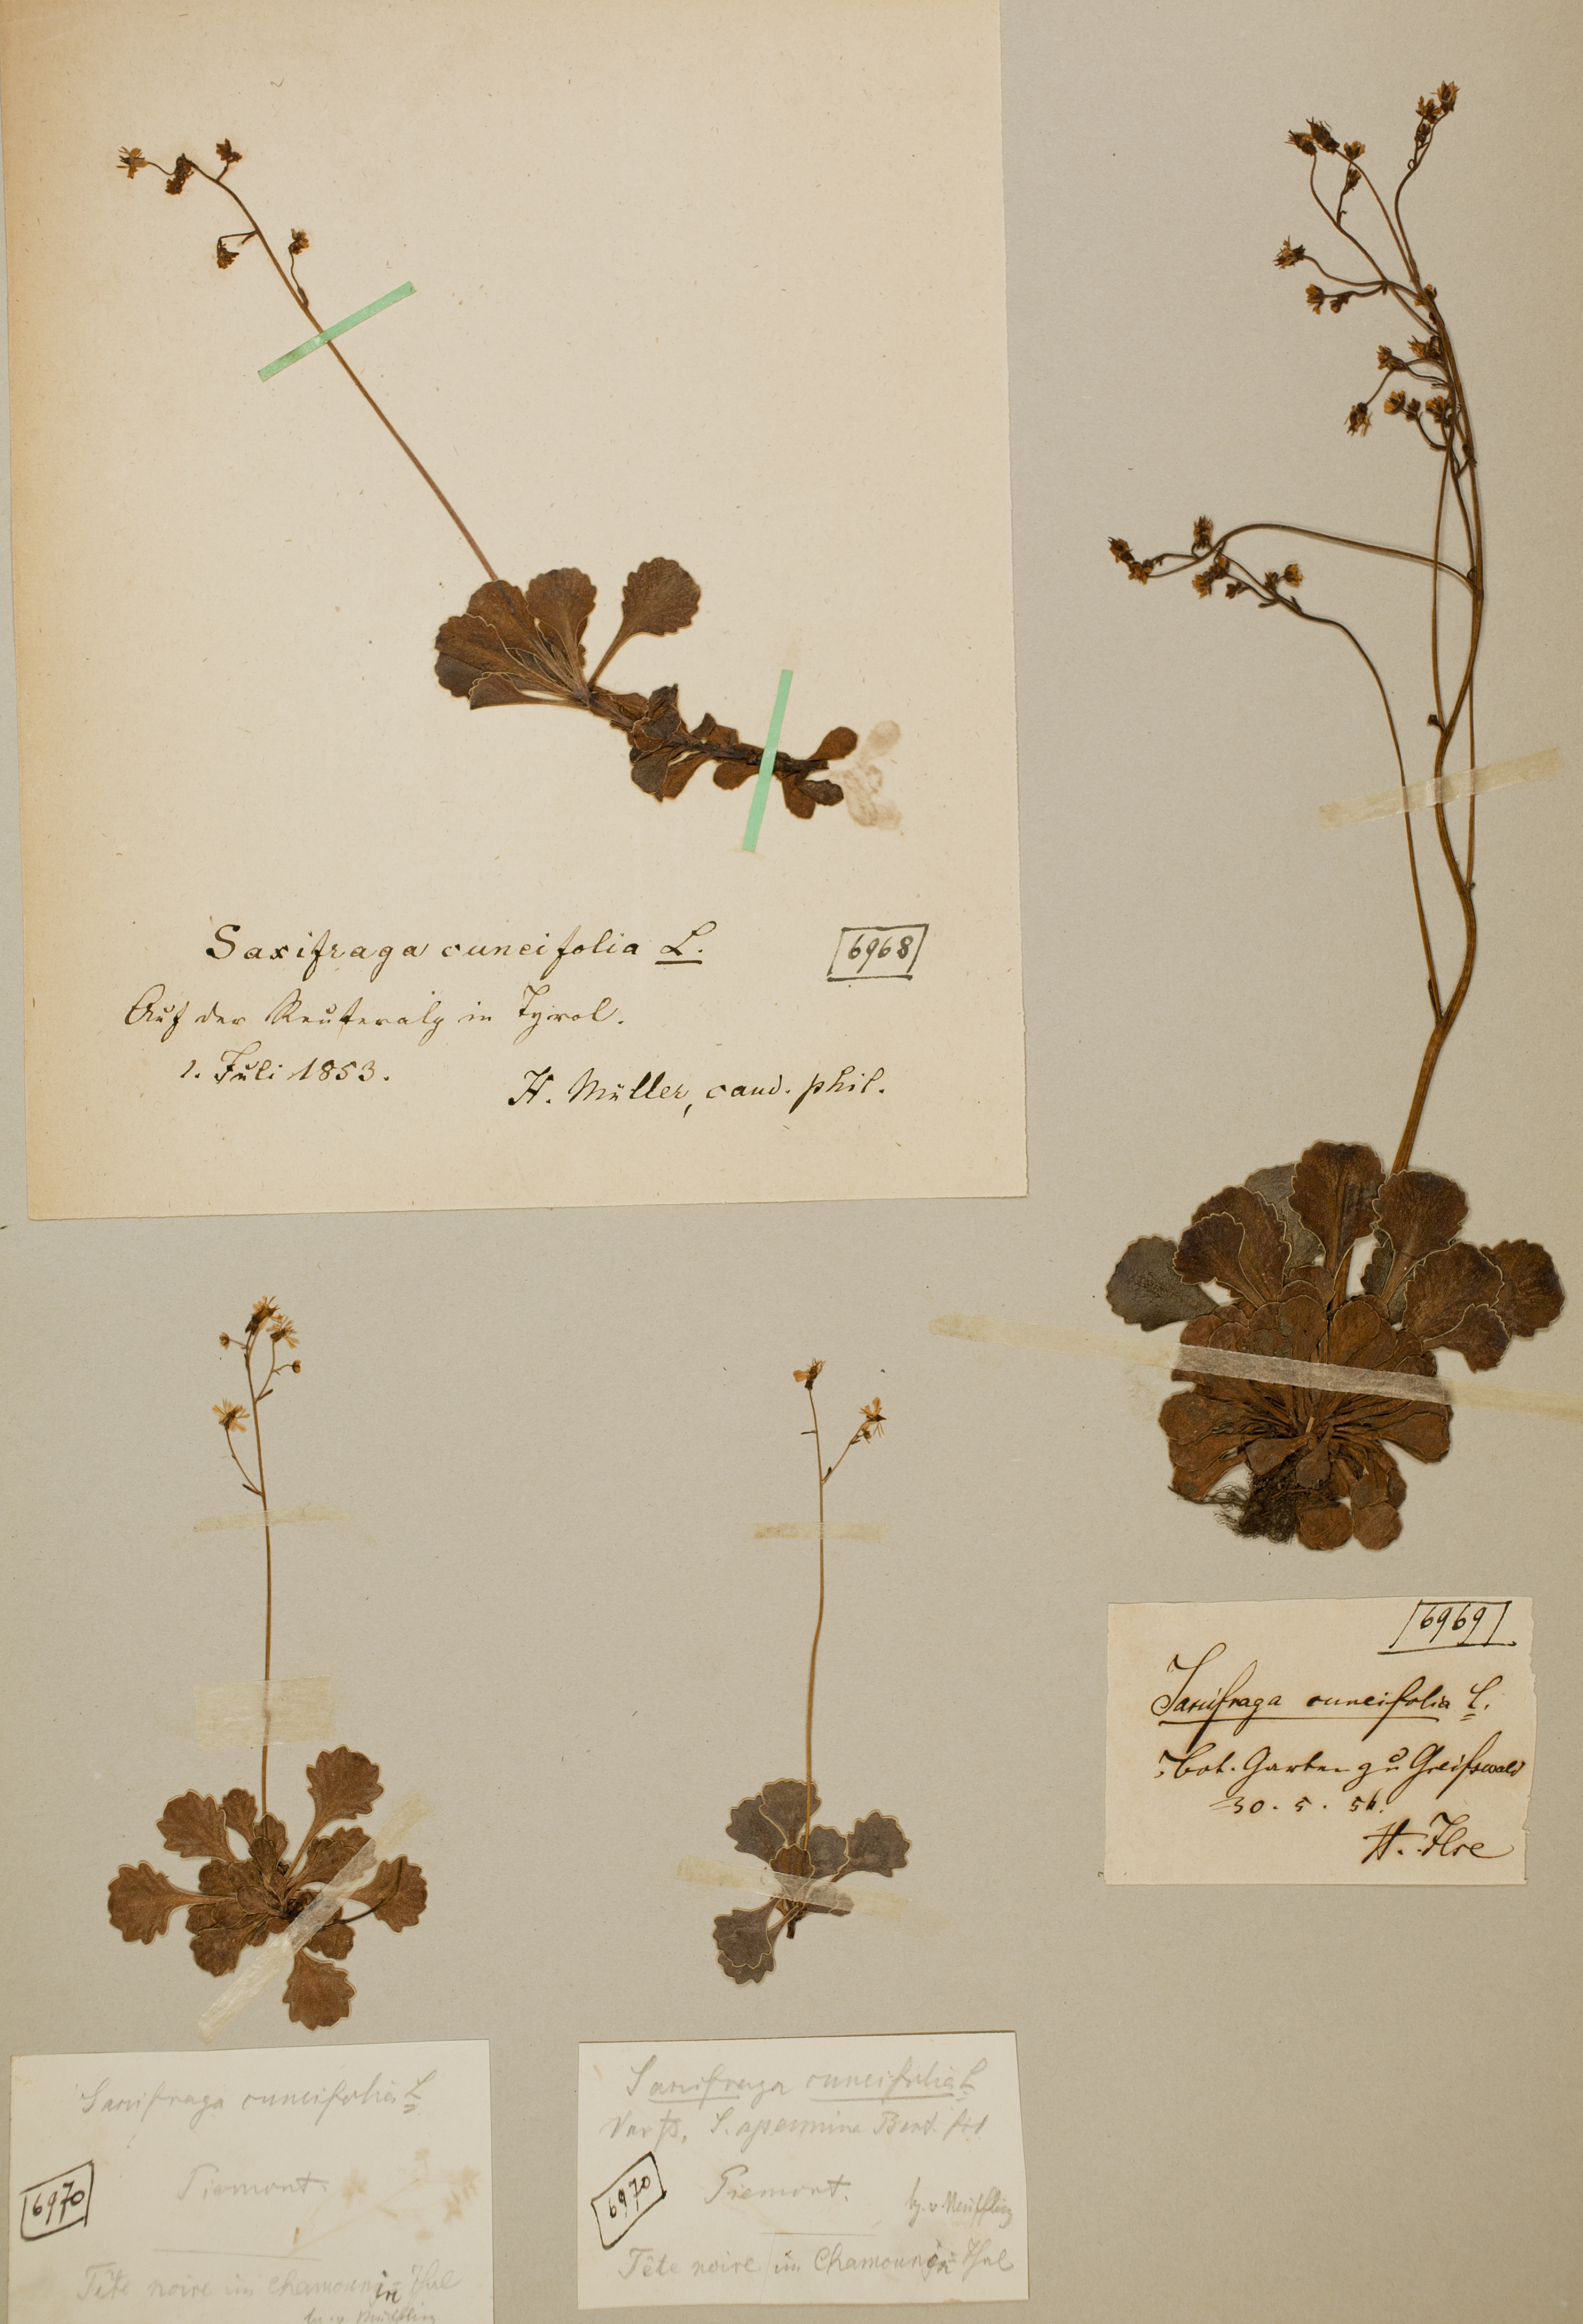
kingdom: Plantae
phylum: Tracheophyta
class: Magnoliopsida
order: Saxifragales
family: Saxifragaceae
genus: Saxifraga
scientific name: Saxifraga cuneifolia
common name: Lesser londonpride
